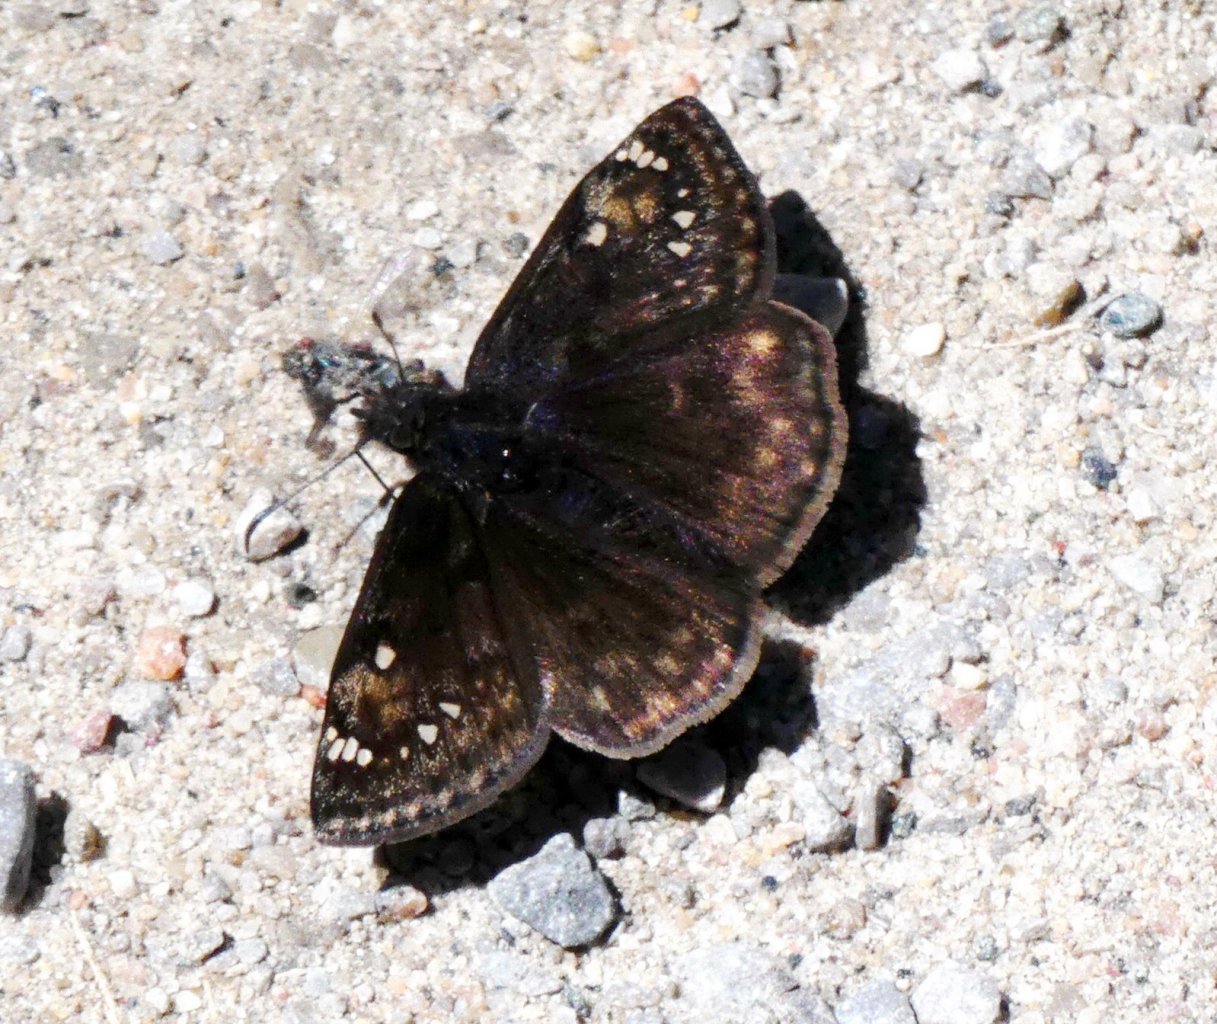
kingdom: Animalia
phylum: Arthropoda
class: Insecta
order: Lepidoptera
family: Hesperiidae
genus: Gesta
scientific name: Gesta
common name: Juvenal's Duskywing
